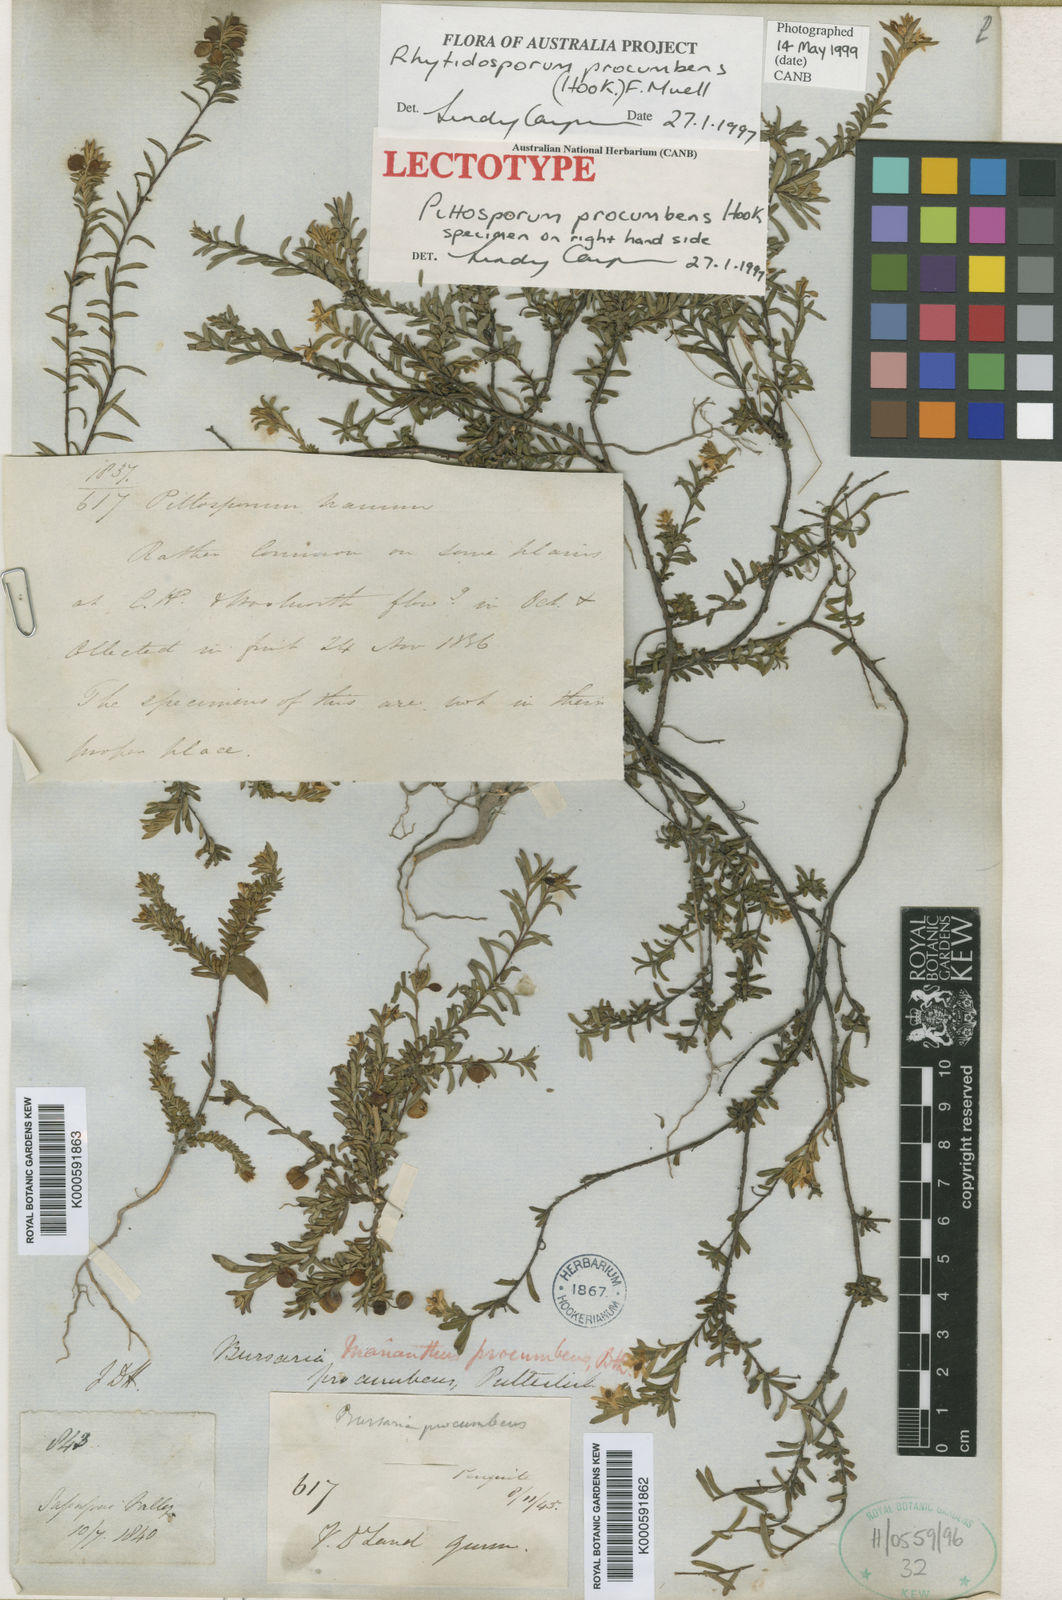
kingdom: Plantae
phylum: Tracheophyta
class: Magnoliopsida
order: Apiales
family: Pittosporaceae
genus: Rhytidosporum
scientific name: Rhytidosporum procumbens
